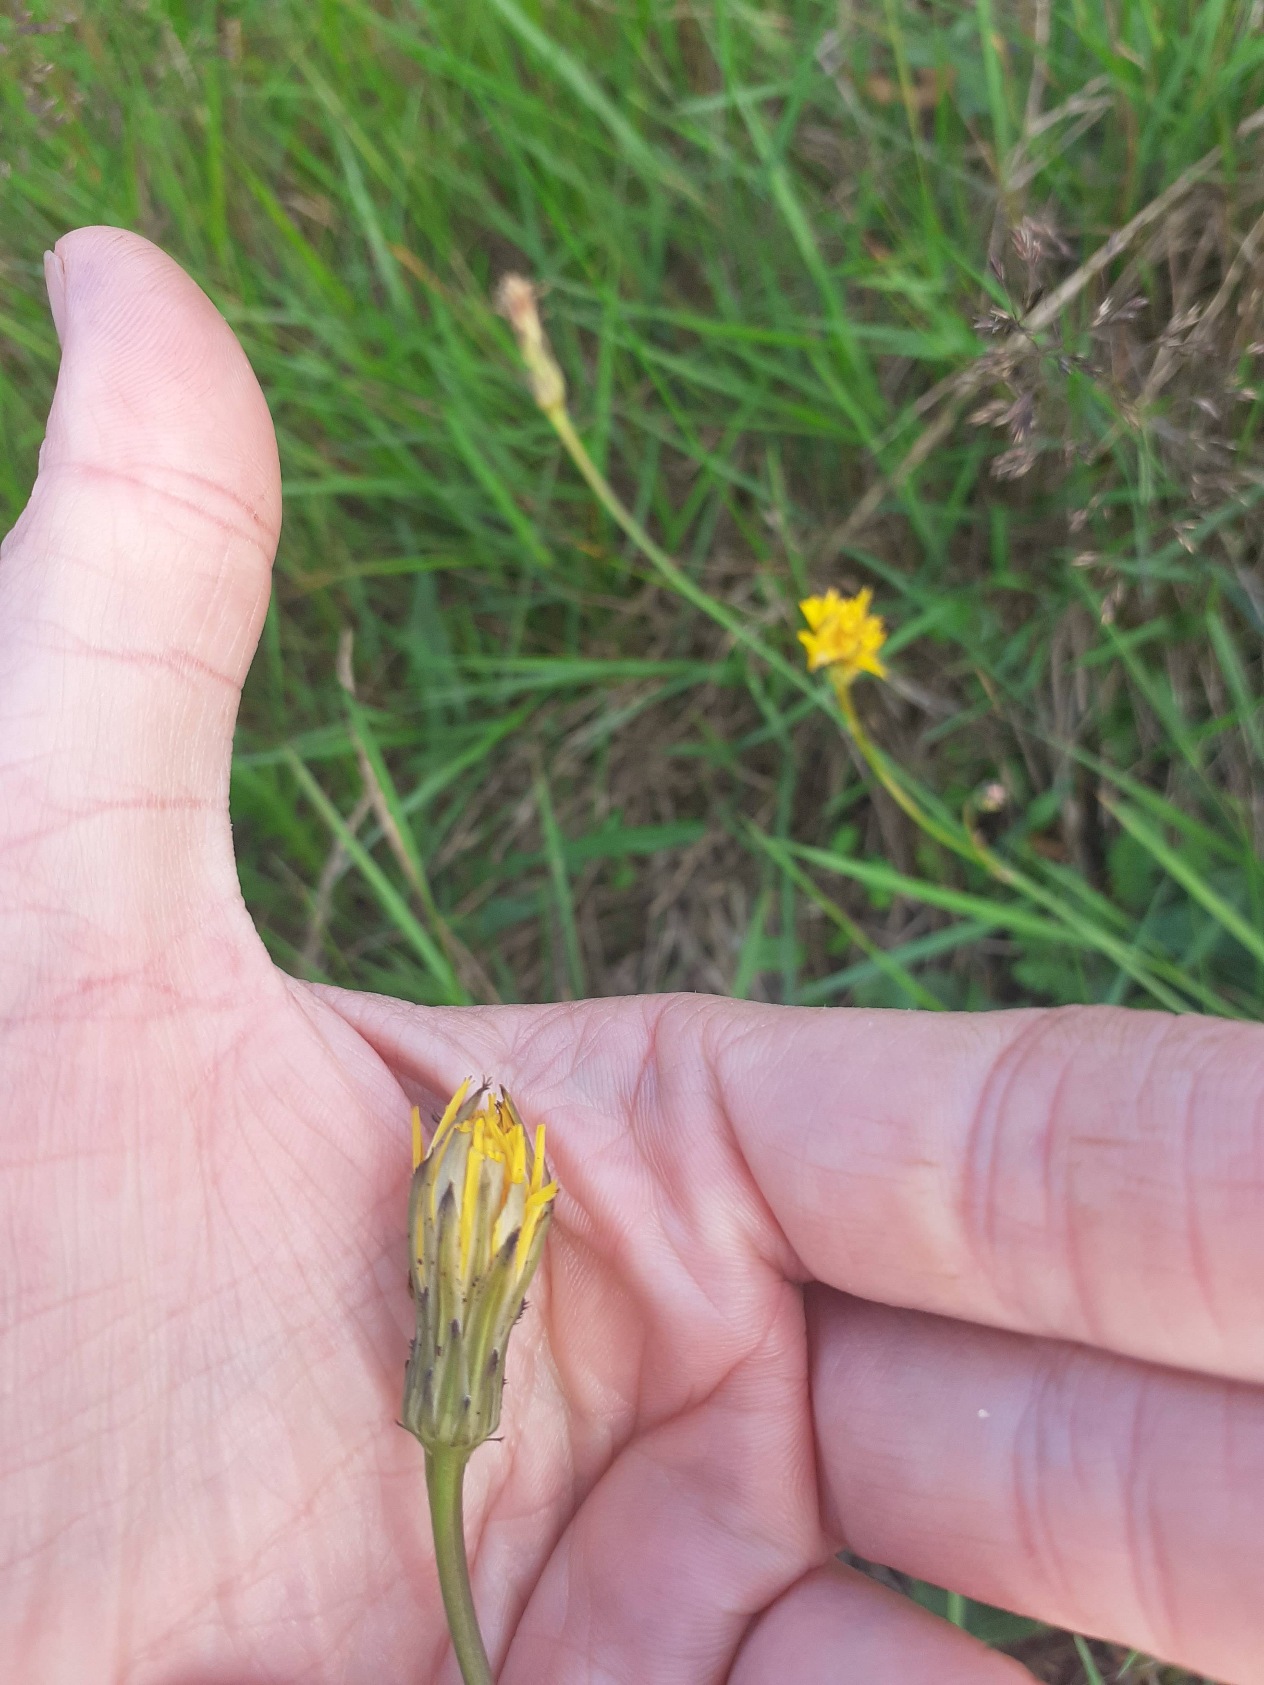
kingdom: Plantae
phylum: Tracheophyta
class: Magnoliopsida
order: Asterales
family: Asteraceae
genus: Hypochaeris
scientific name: Hypochaeris radicata
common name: Almindelig kongepen
